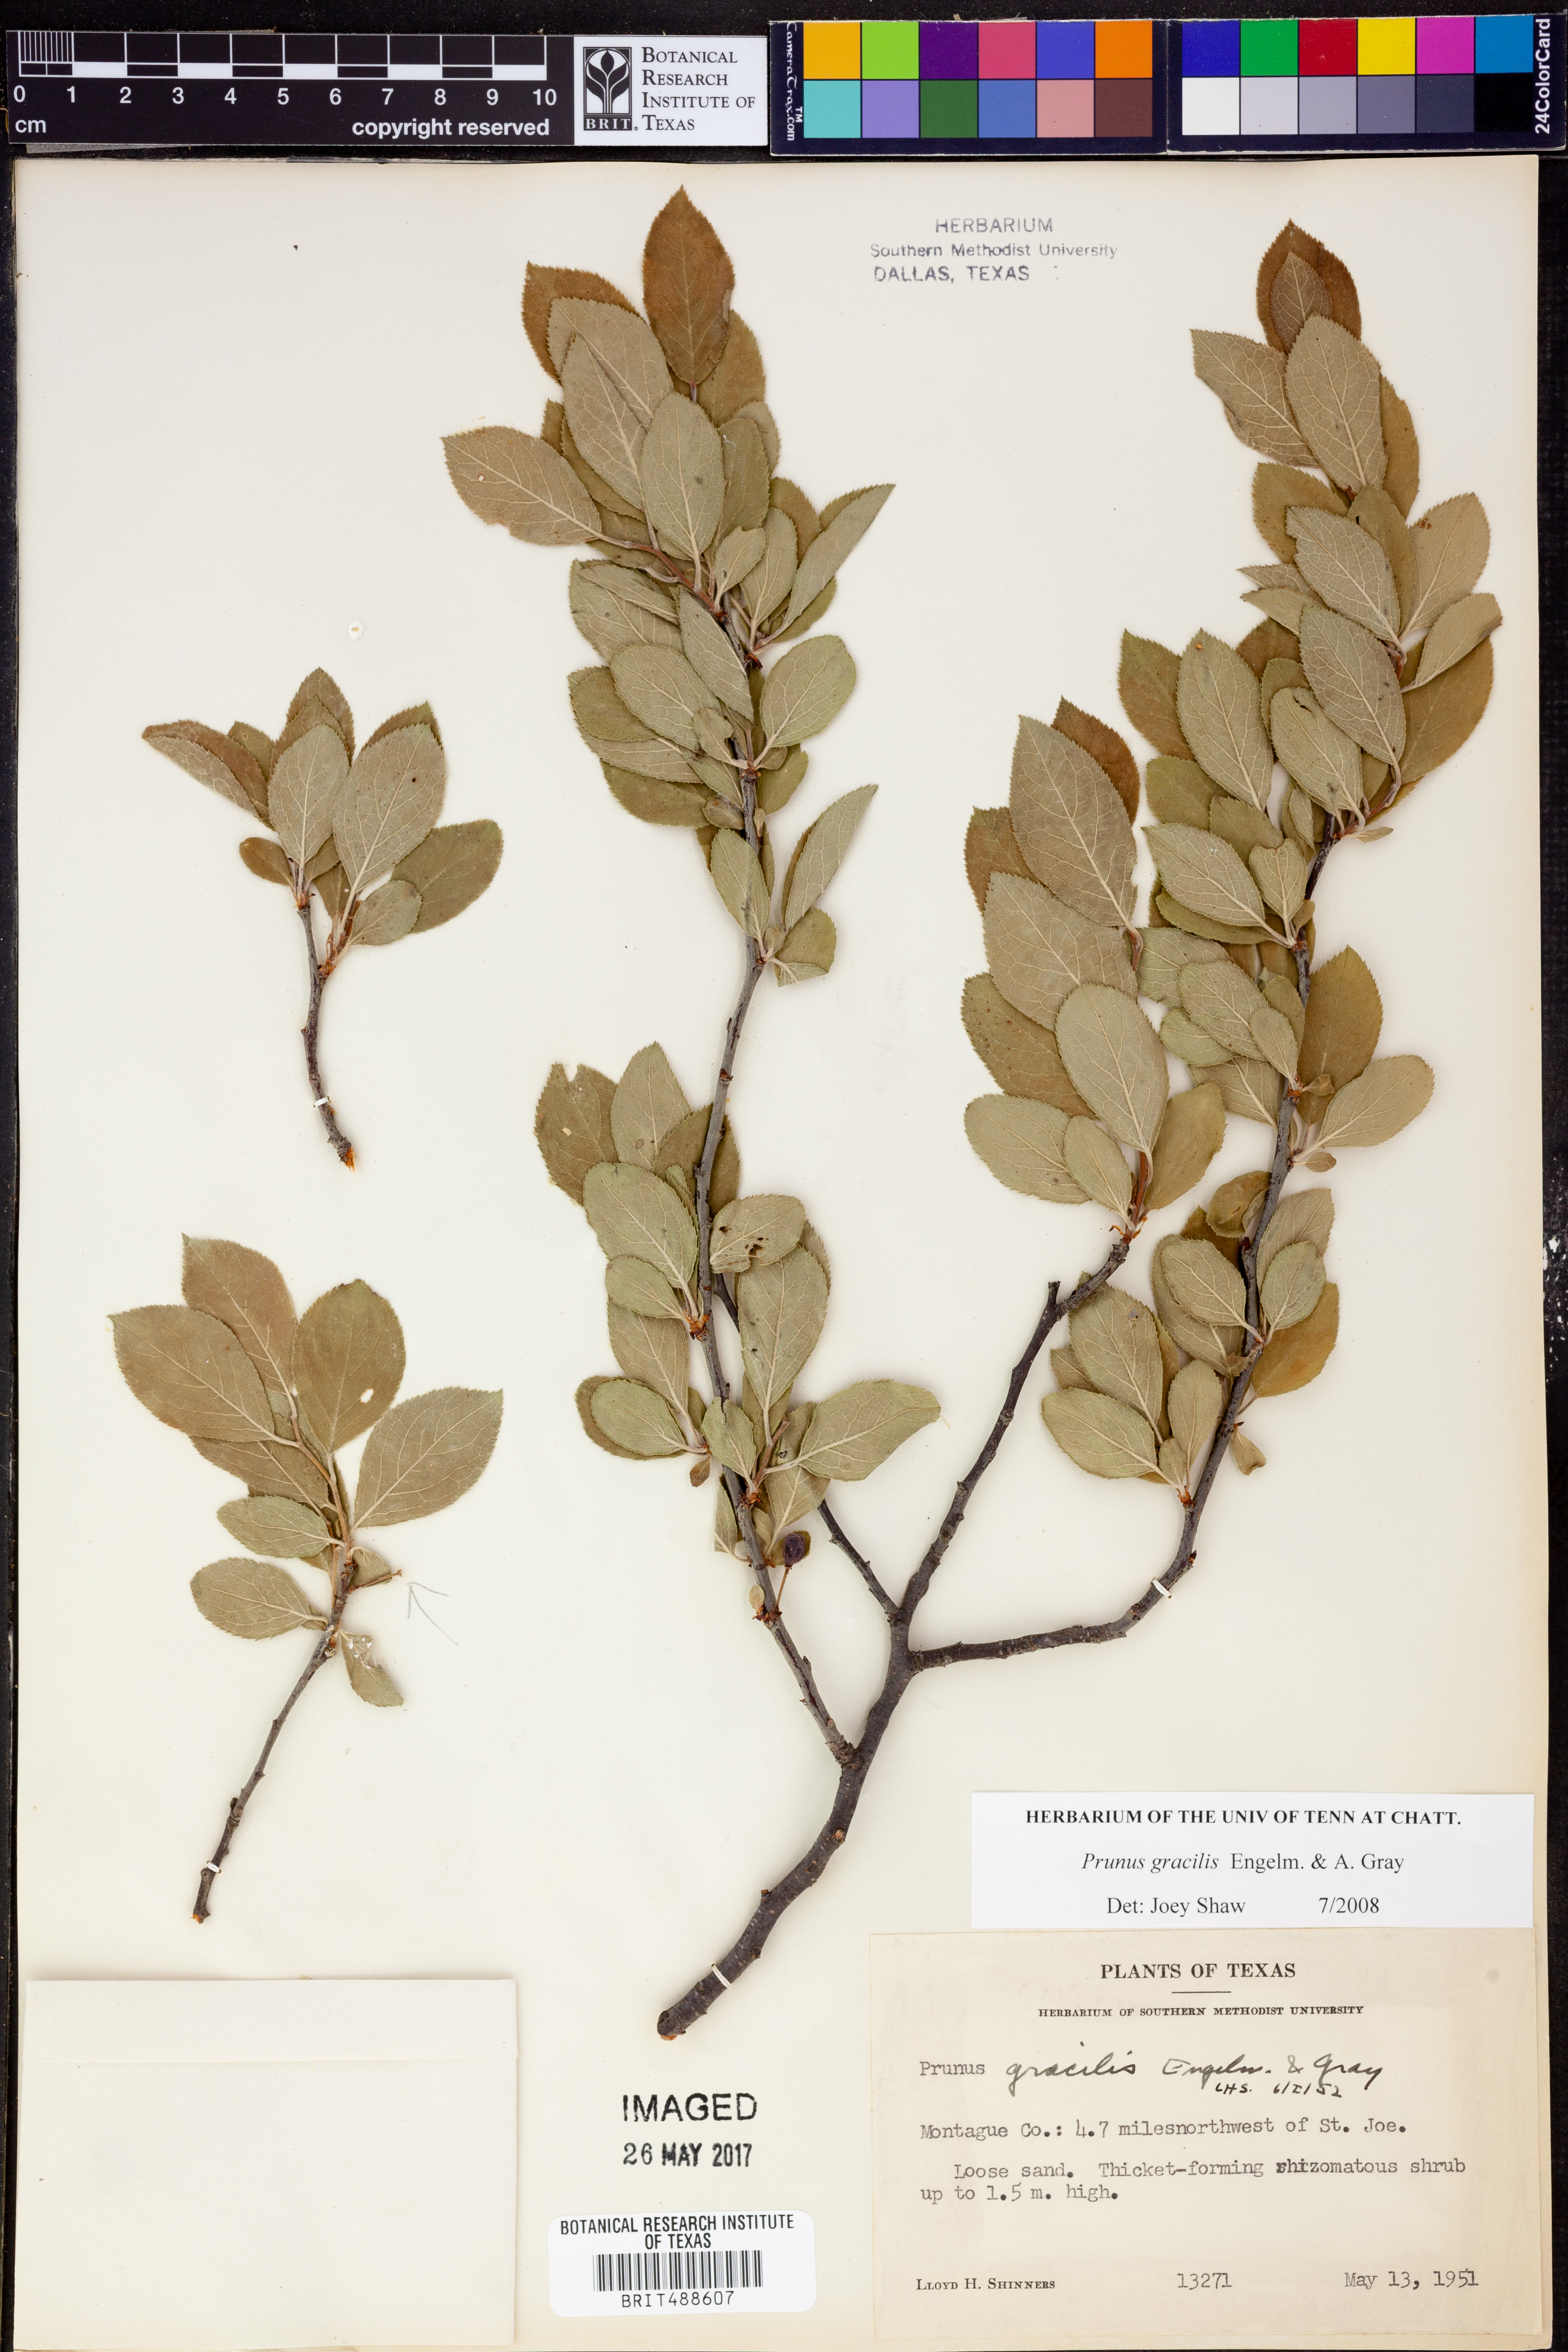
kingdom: Plantae
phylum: Tracheophyta
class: Magnoliopsida
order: Rosales
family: Rosaceae
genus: Prunus
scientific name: Prunus gracilis
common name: Oklahoma plum
